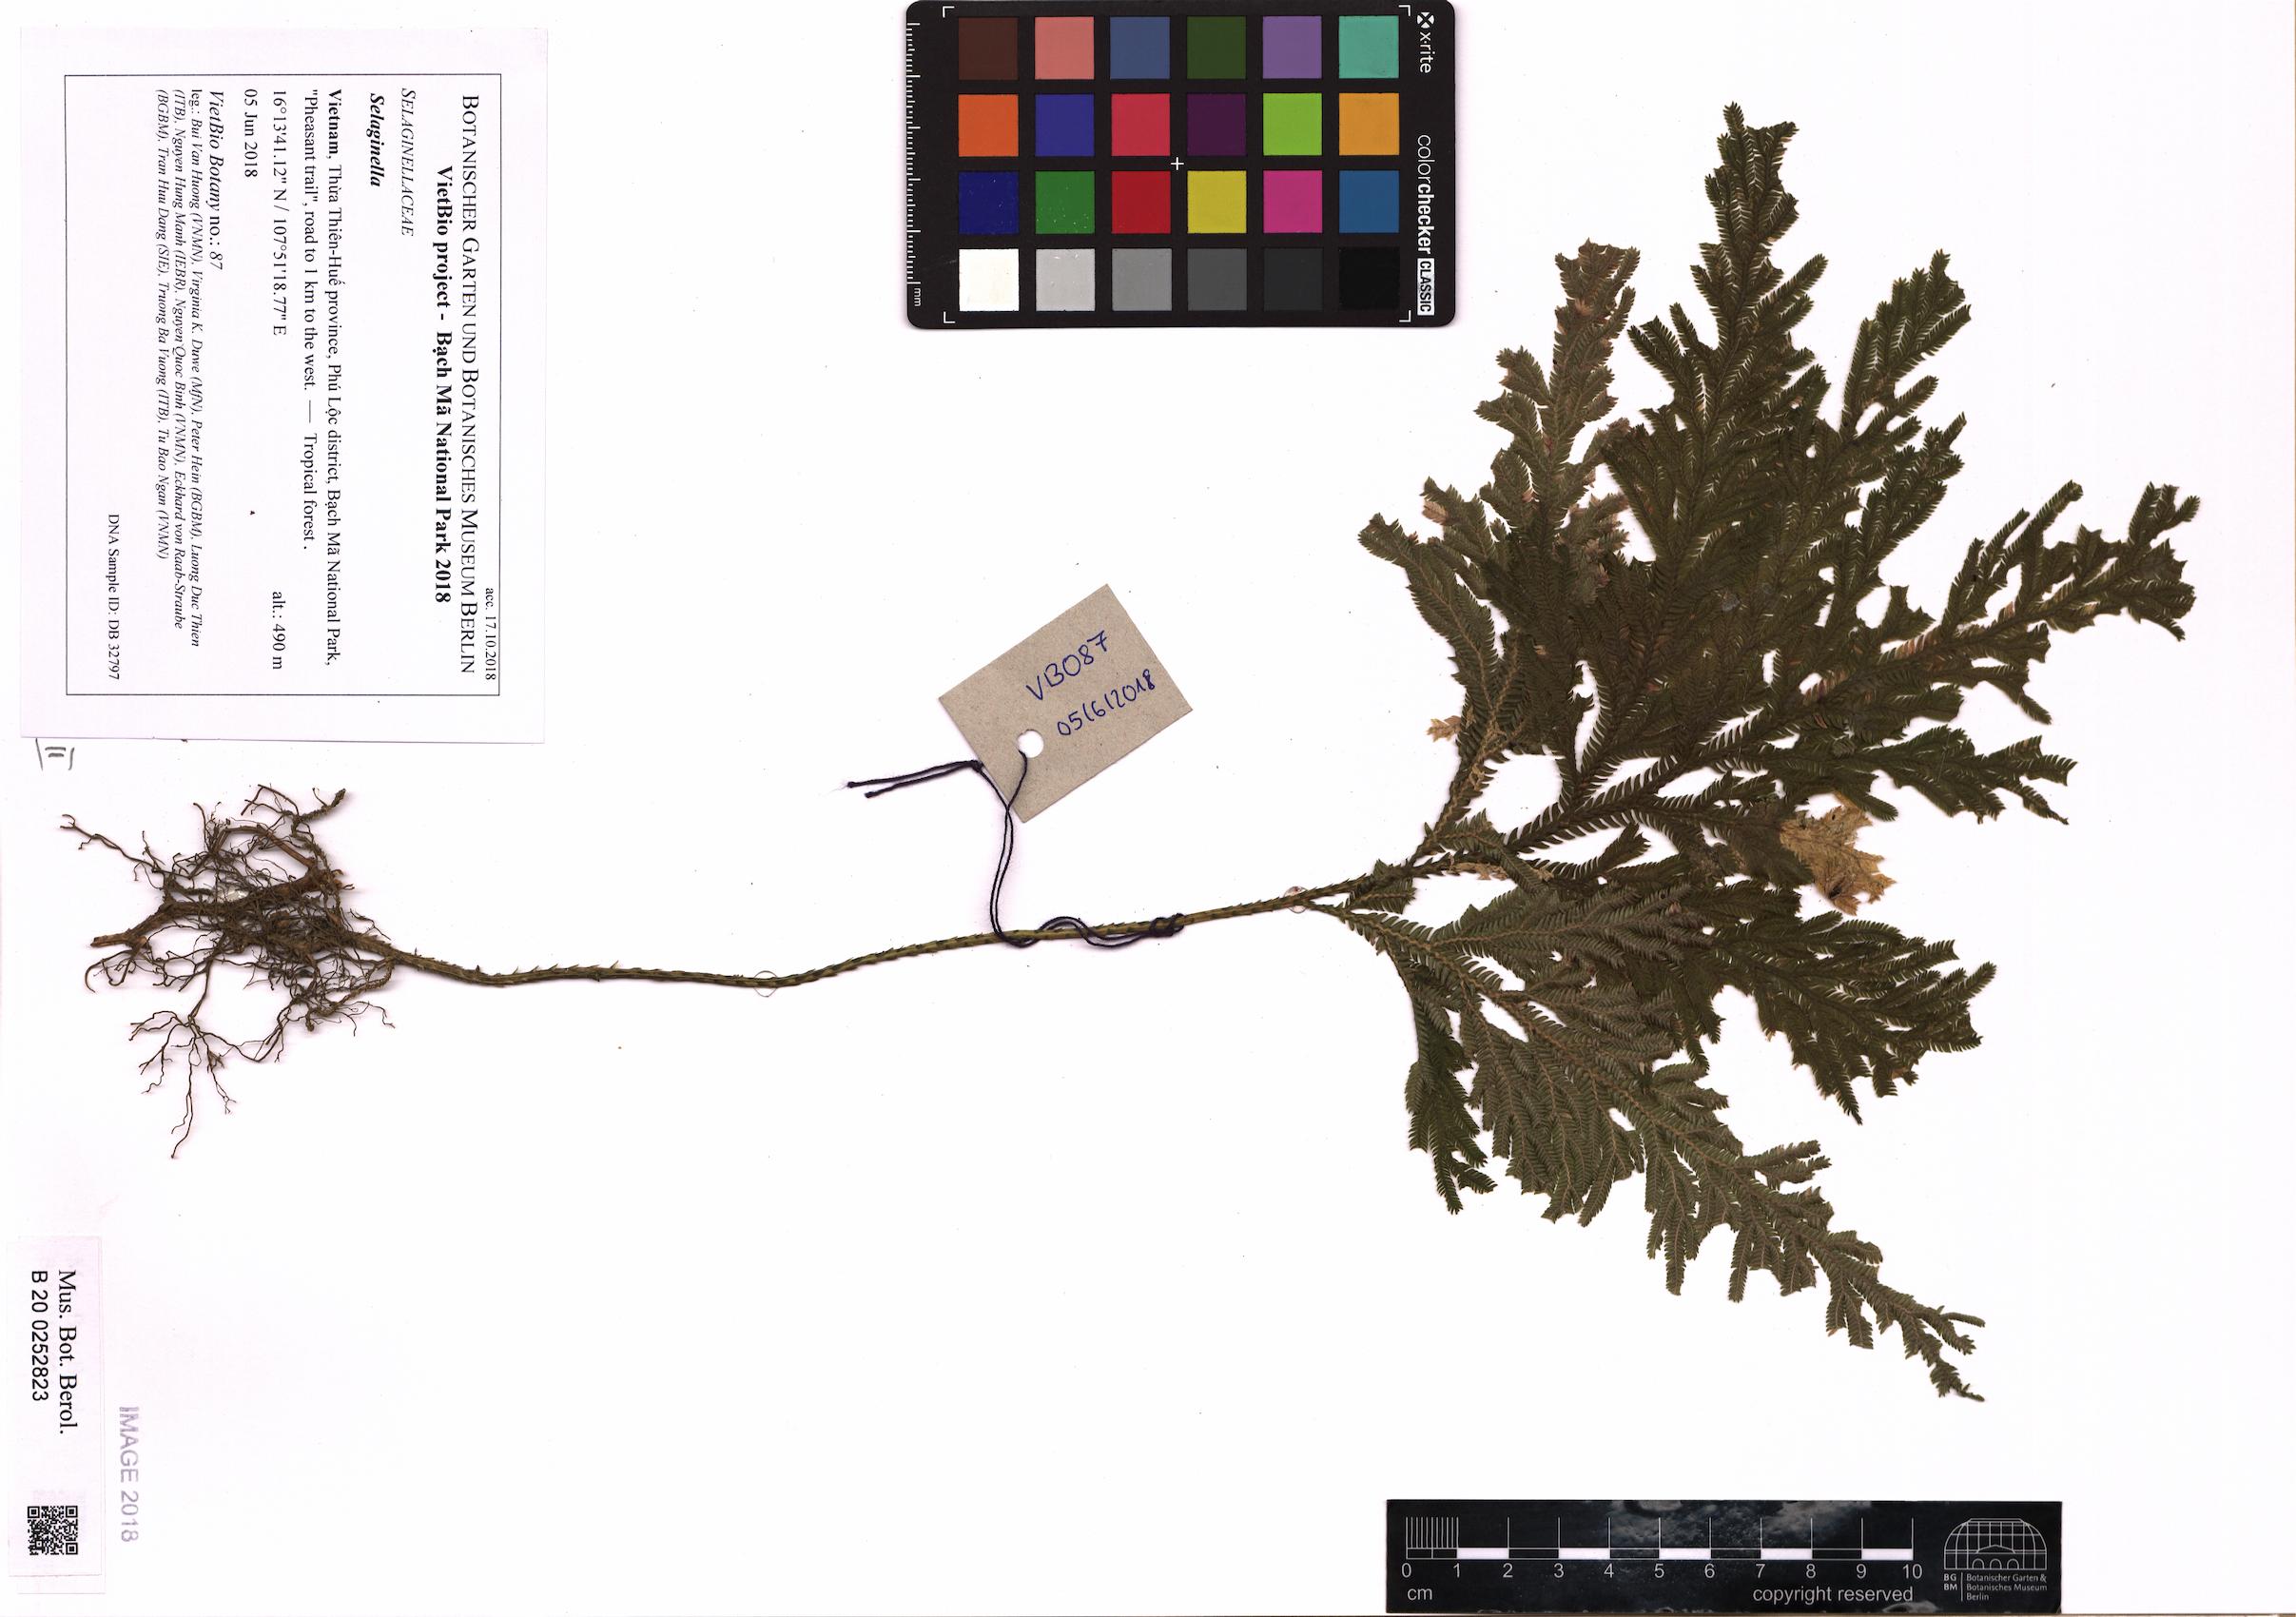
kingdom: Plantae
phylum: Tracheophyta
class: Lycopodiopsida
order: Selaginellales
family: Selaginellaceae
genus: Selaginella
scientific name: Selaginella
